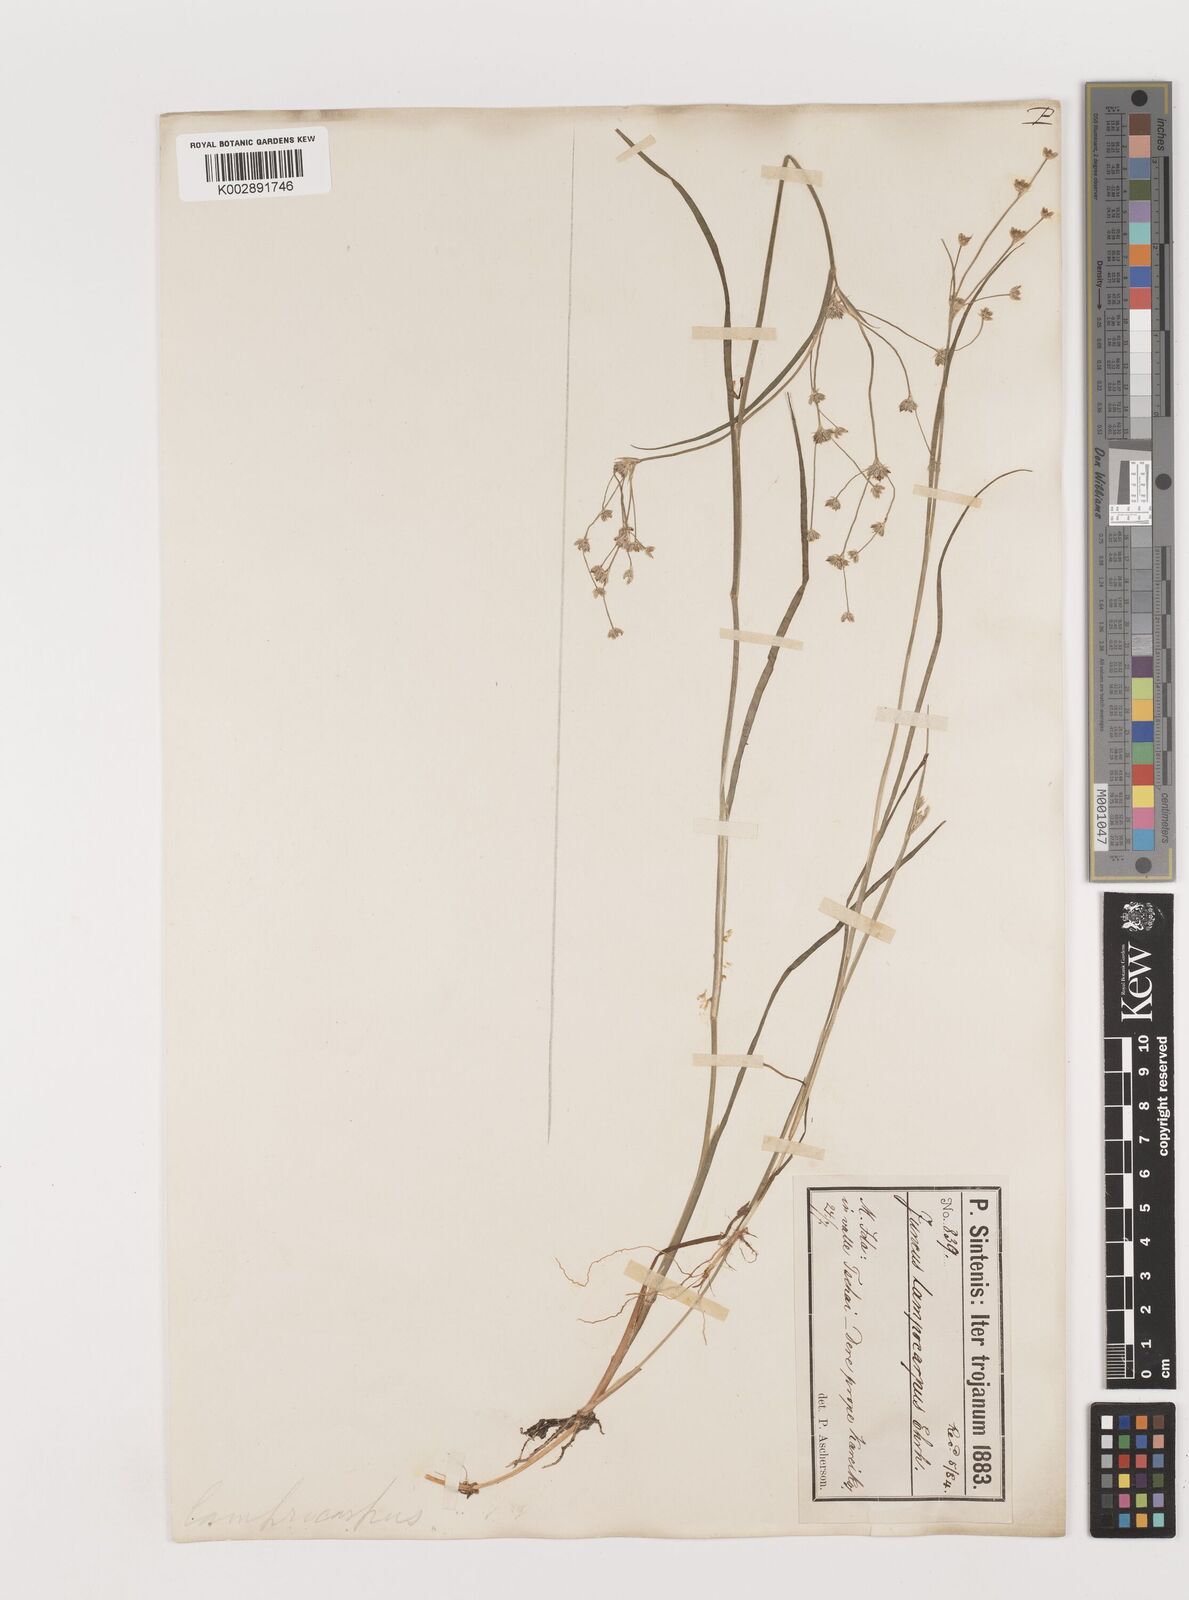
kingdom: Plantae
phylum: Tracheophyta
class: Liliopsida
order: Poales
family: Juncaceae
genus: Juncus
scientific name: Juncus articulatus
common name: Jointed rush
